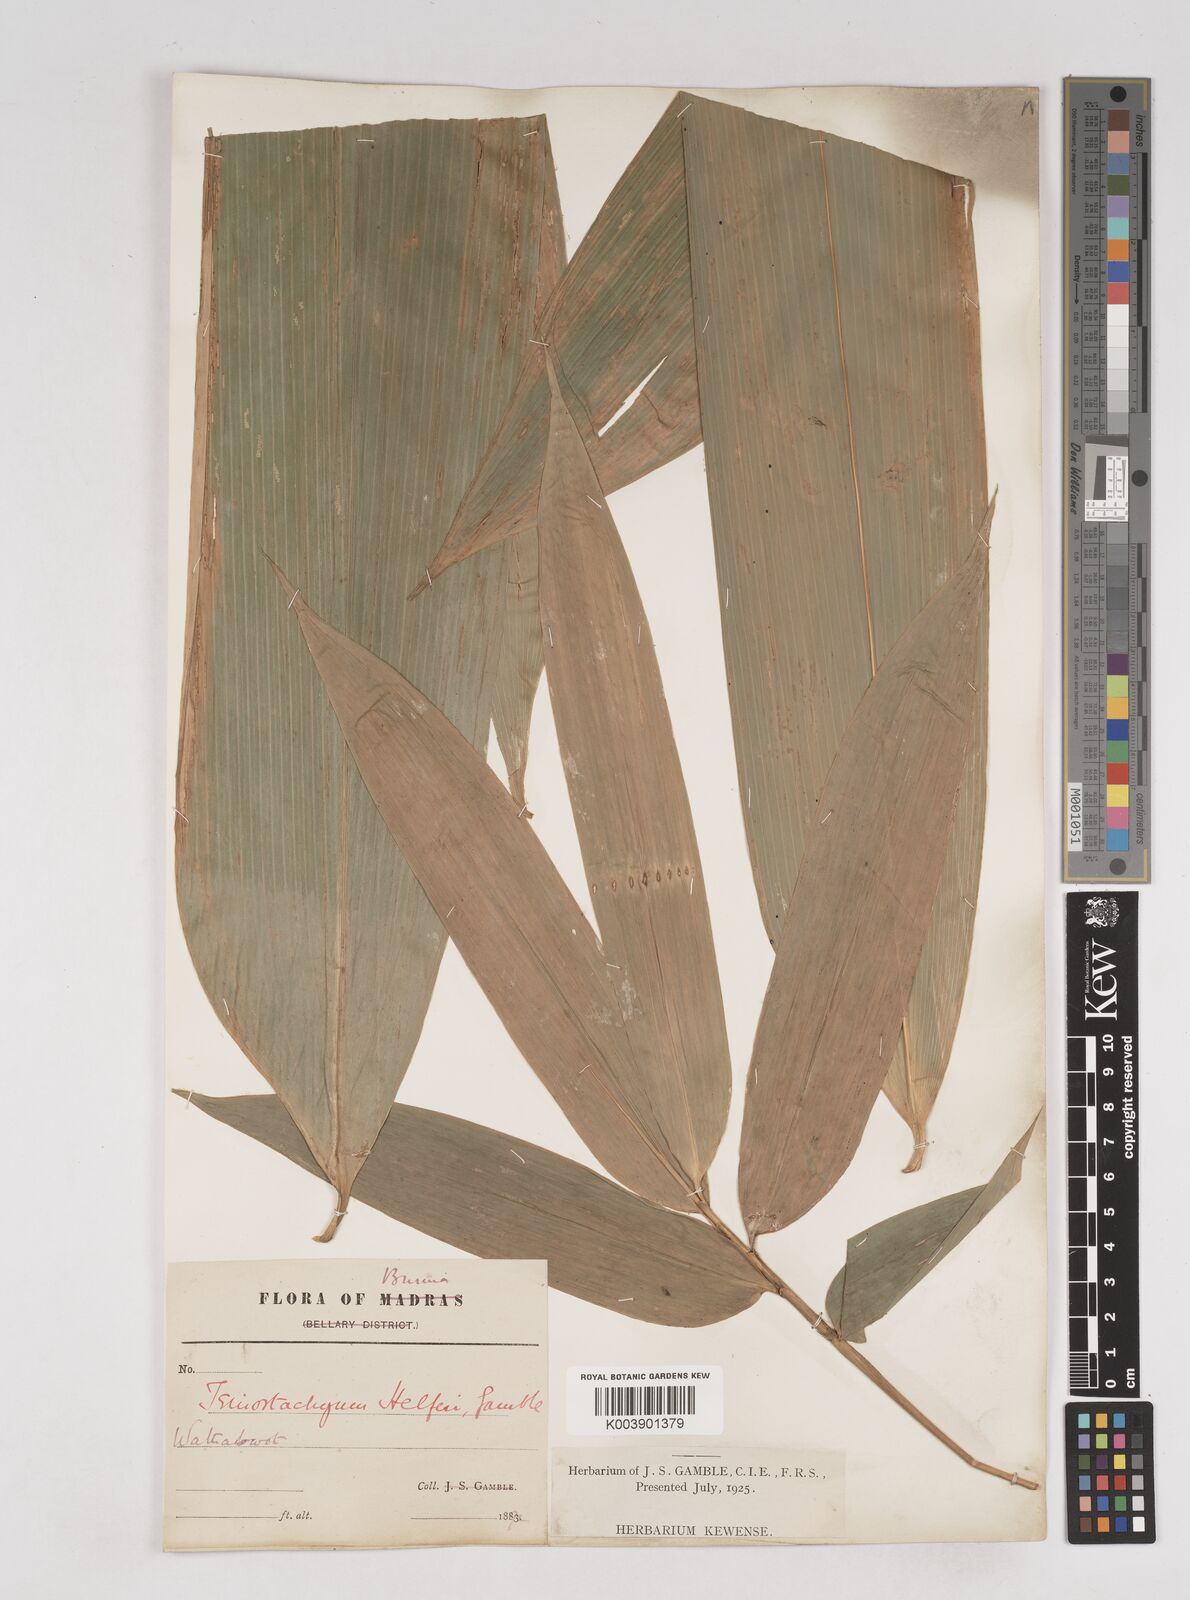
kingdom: Plantae
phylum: Tracheophyta
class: Liliopsida
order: Poales
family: Poaceae
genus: Schizostachyum
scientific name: Schizostachyum helferi
